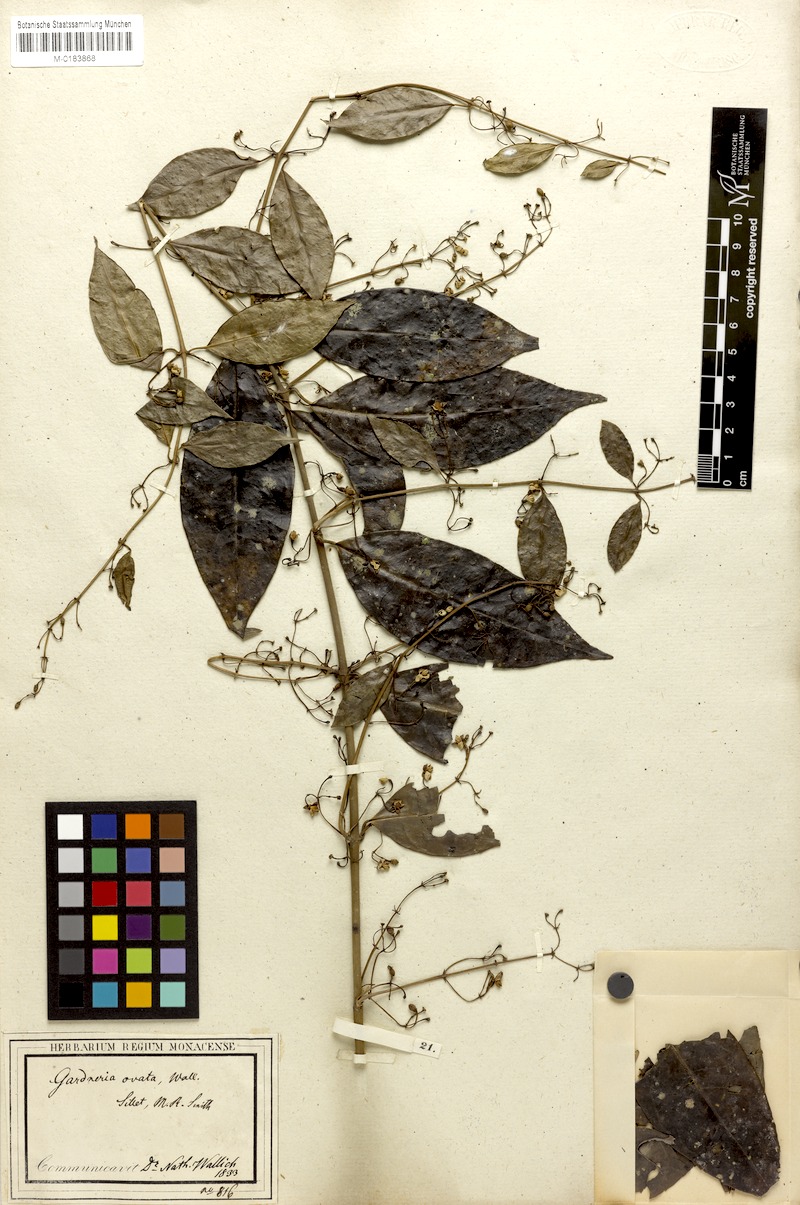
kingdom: Plantae
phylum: Tracheophyta
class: Magnoliopsida
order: Gentianales
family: Loganiaceae
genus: Gardneria
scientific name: Gardneria ovata
